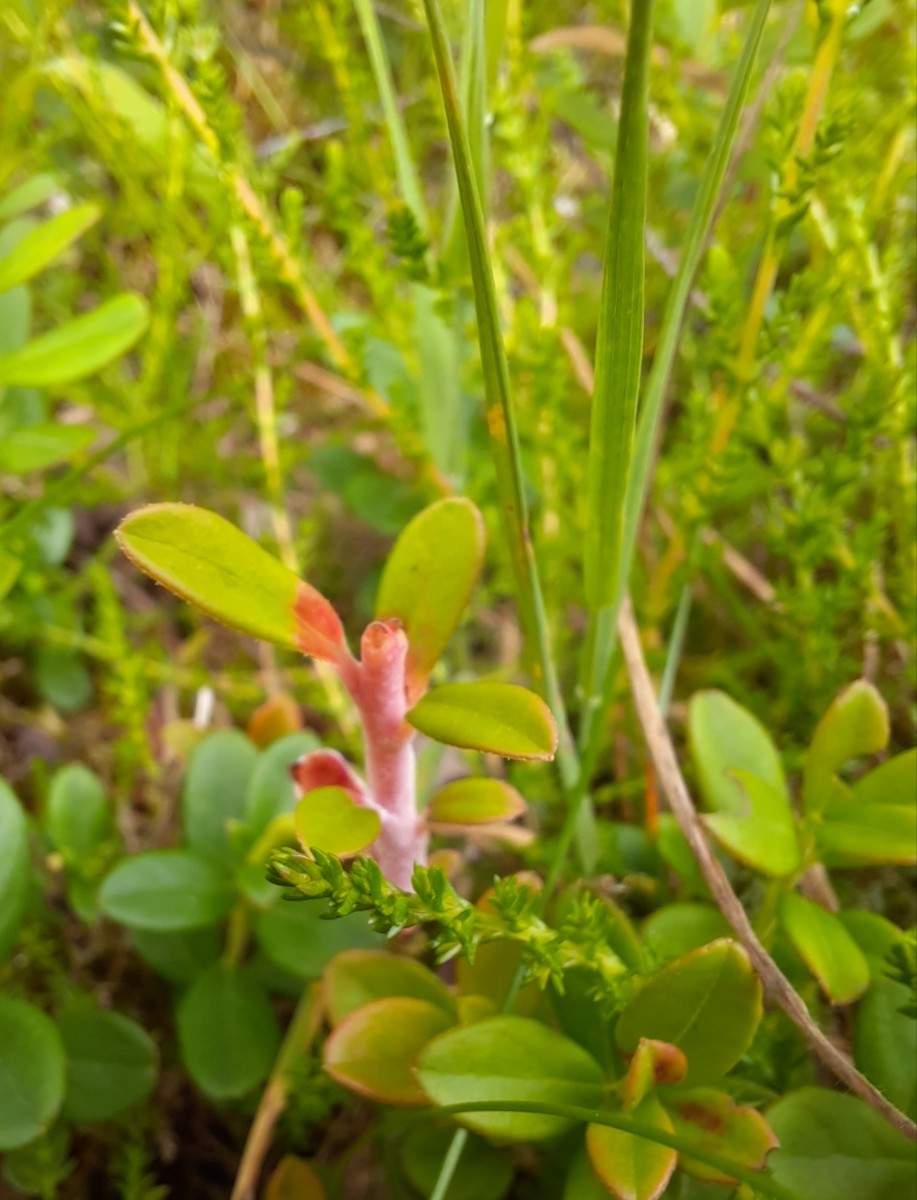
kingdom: Fungi
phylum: Basidiomycota
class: Exobasidiomycetes
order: Exobasidiales
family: Exobasidiaceae
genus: Exobasidium
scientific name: Exobasidium vaccinii
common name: tyttebærblad-bøllesvamp
